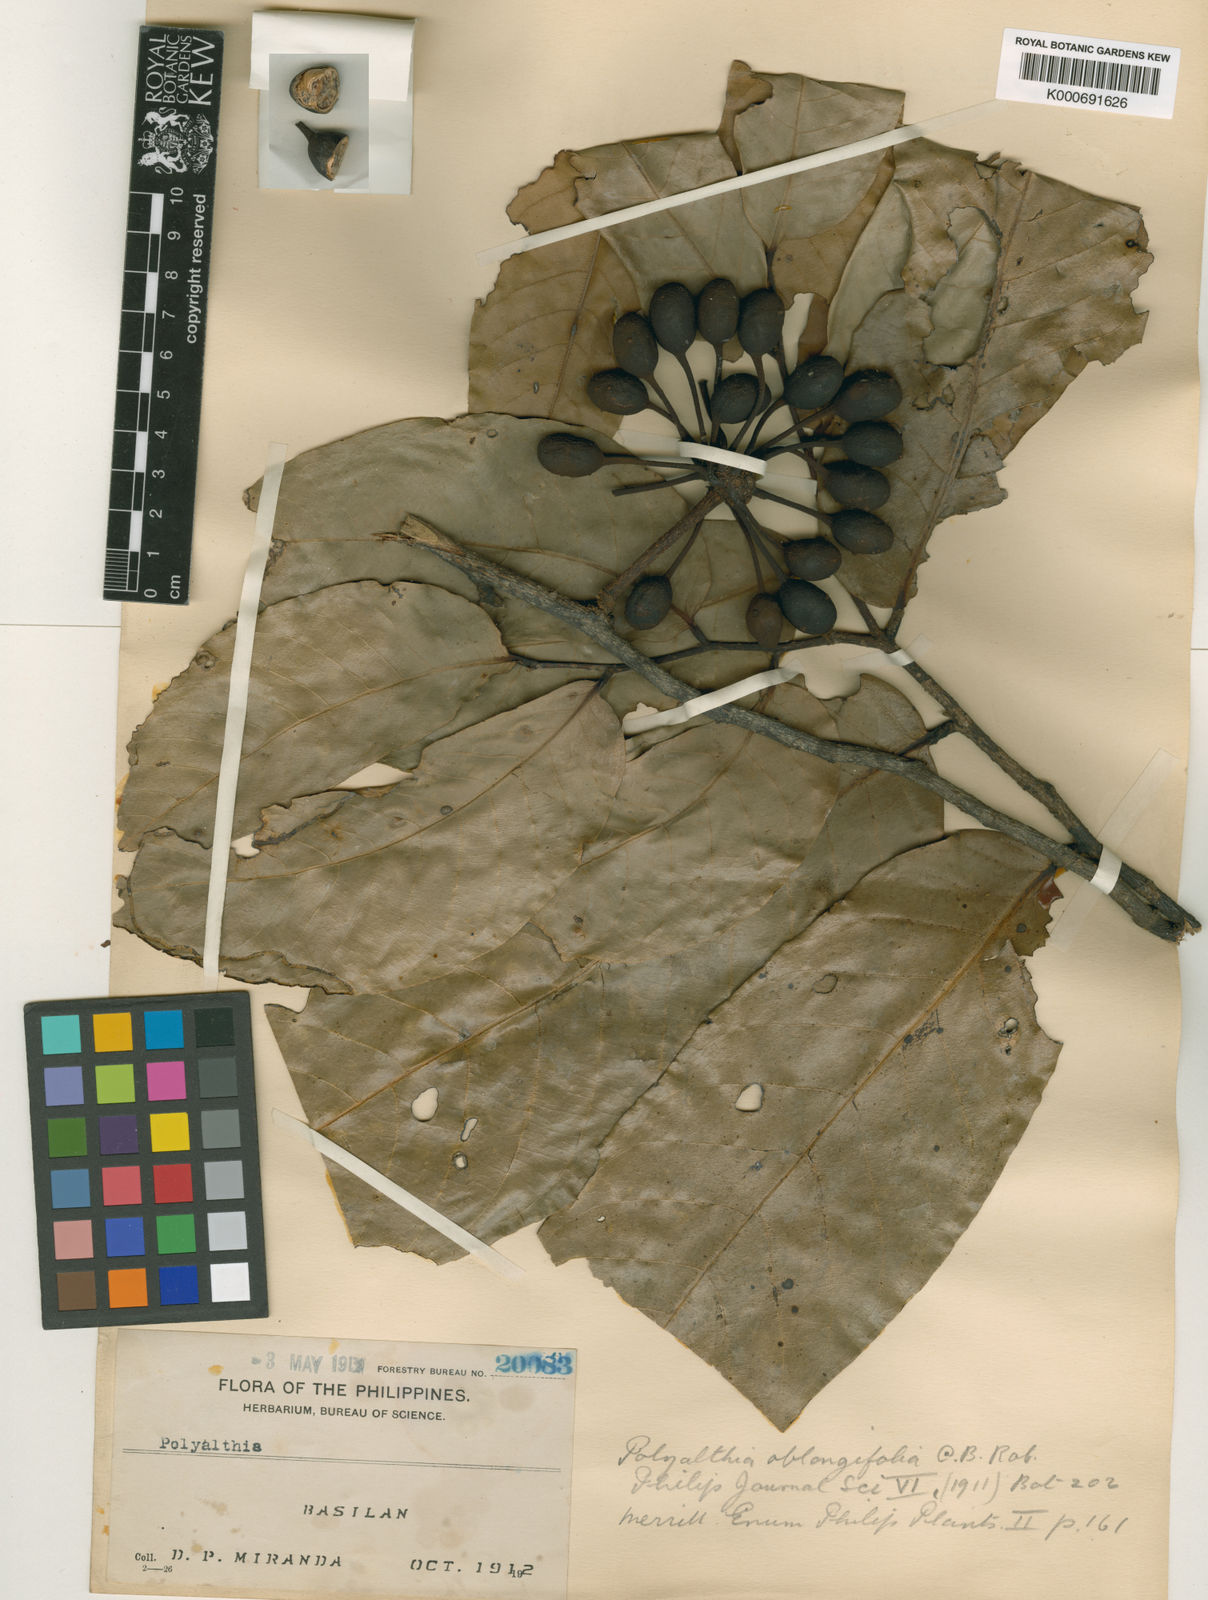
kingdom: Plantae
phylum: Tracheophyta
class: Magnoliopsida
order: Magnoliales
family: Annonaceae
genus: Polyalthia
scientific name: Polyalthia oblongifolia
